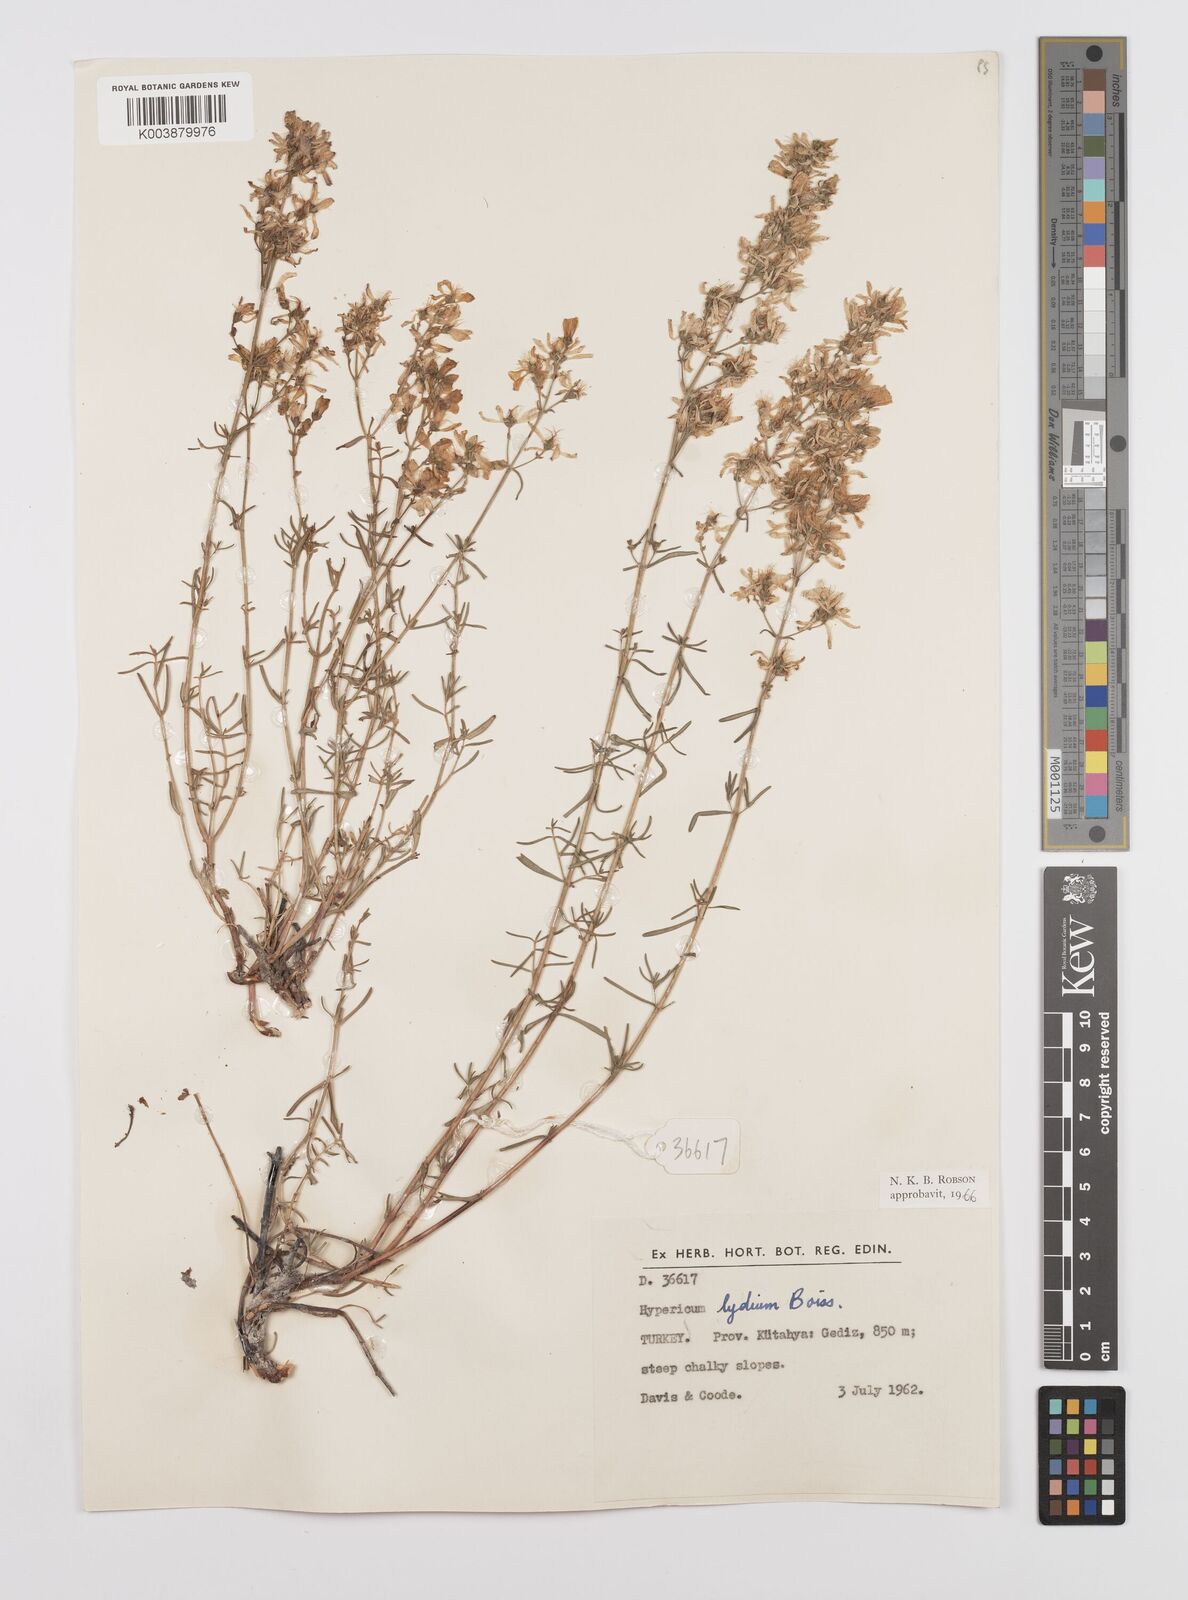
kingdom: Plantae
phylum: Tracheophyta
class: Magnoliopsida
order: Malpighiales
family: Hypericaceae
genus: Hypericum
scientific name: Hypericum lydium
